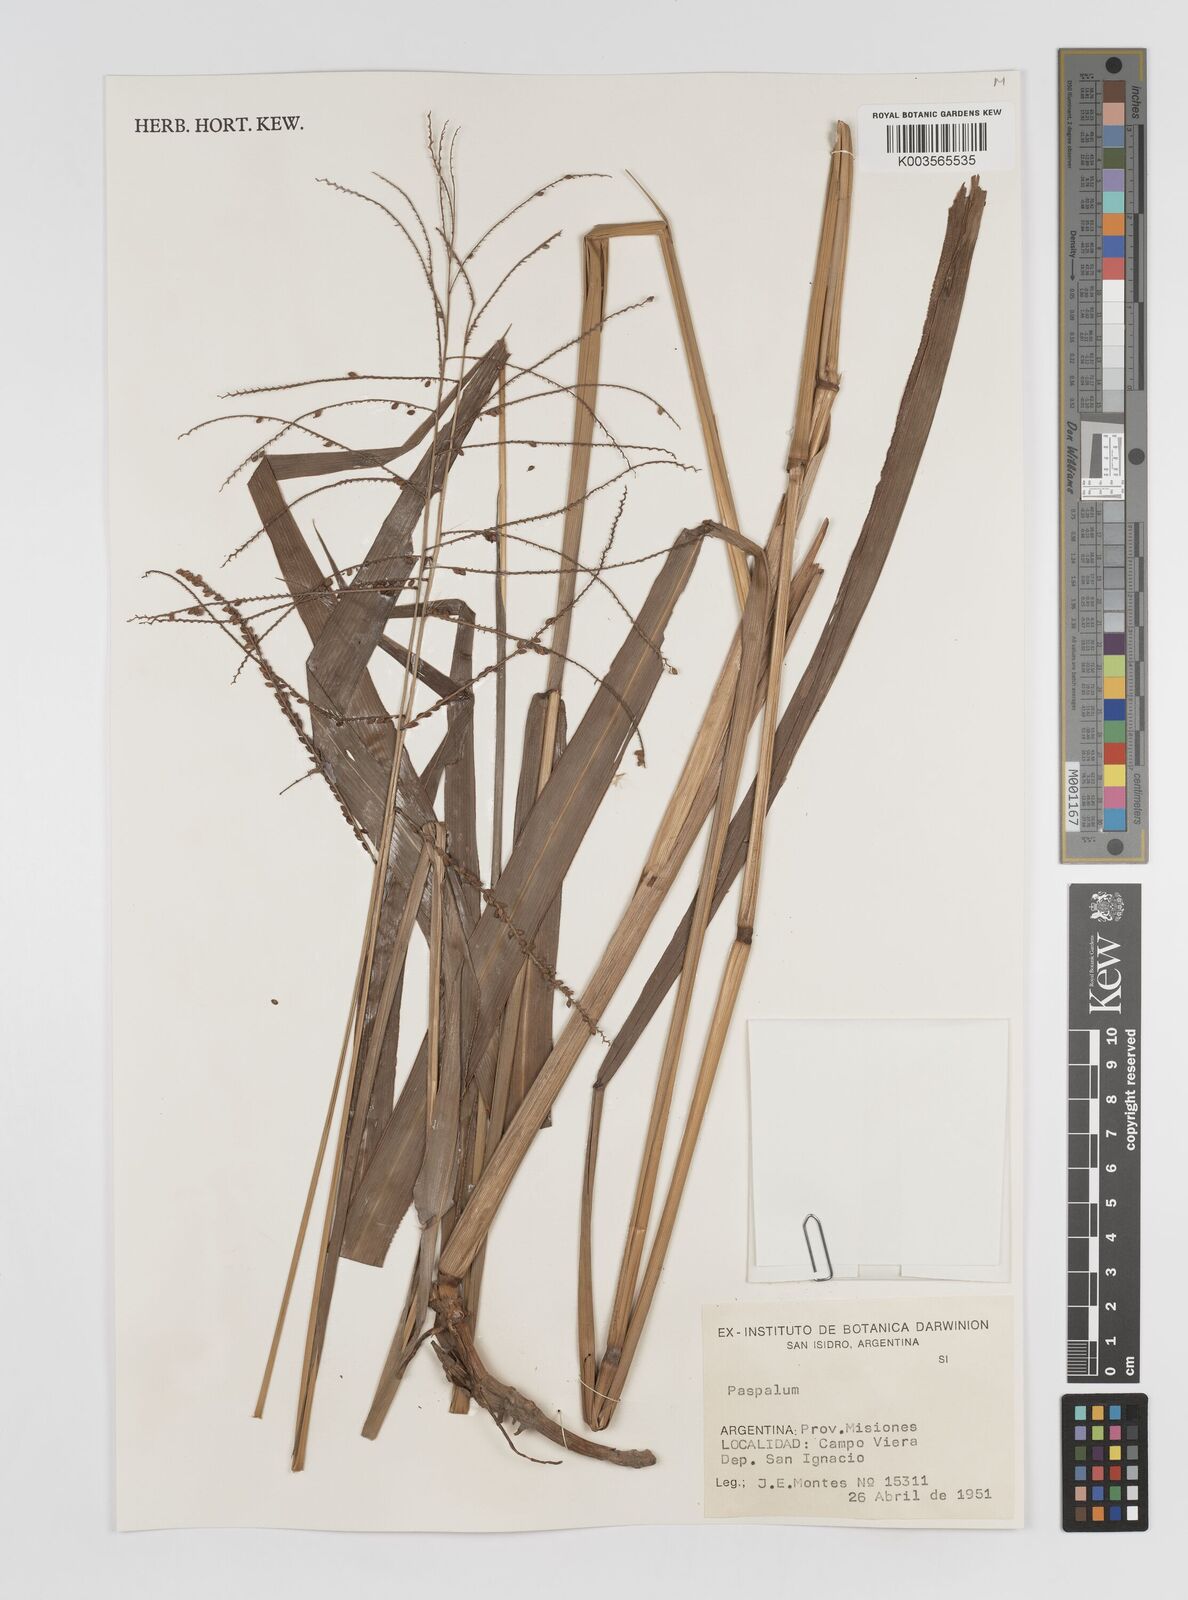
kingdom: Plantae
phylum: Tracheophyta
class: Liliopsida
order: Poales
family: Poaceae
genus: Paspalum
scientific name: Paspalum
